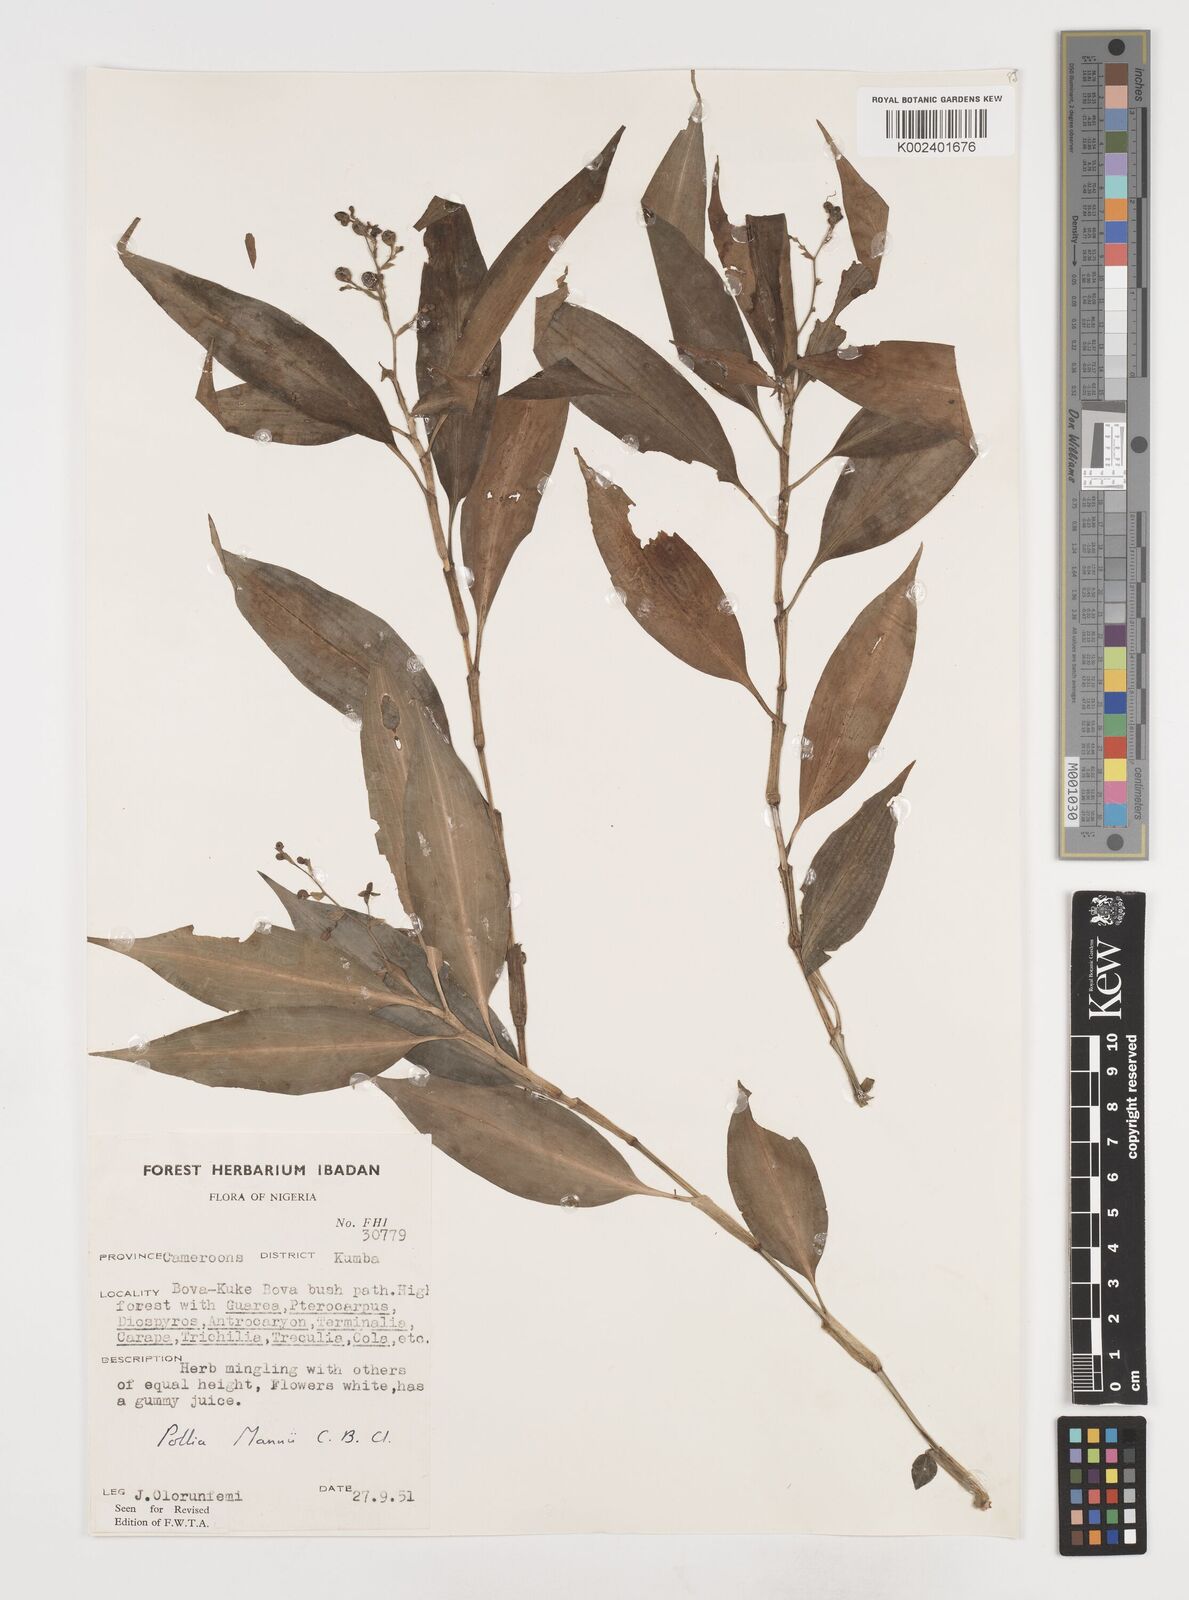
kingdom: Plantae
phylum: Tracheophyta
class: Liliopsida
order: Commelinales
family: Commelinaceae
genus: Pollia
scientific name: Pollia mannii
